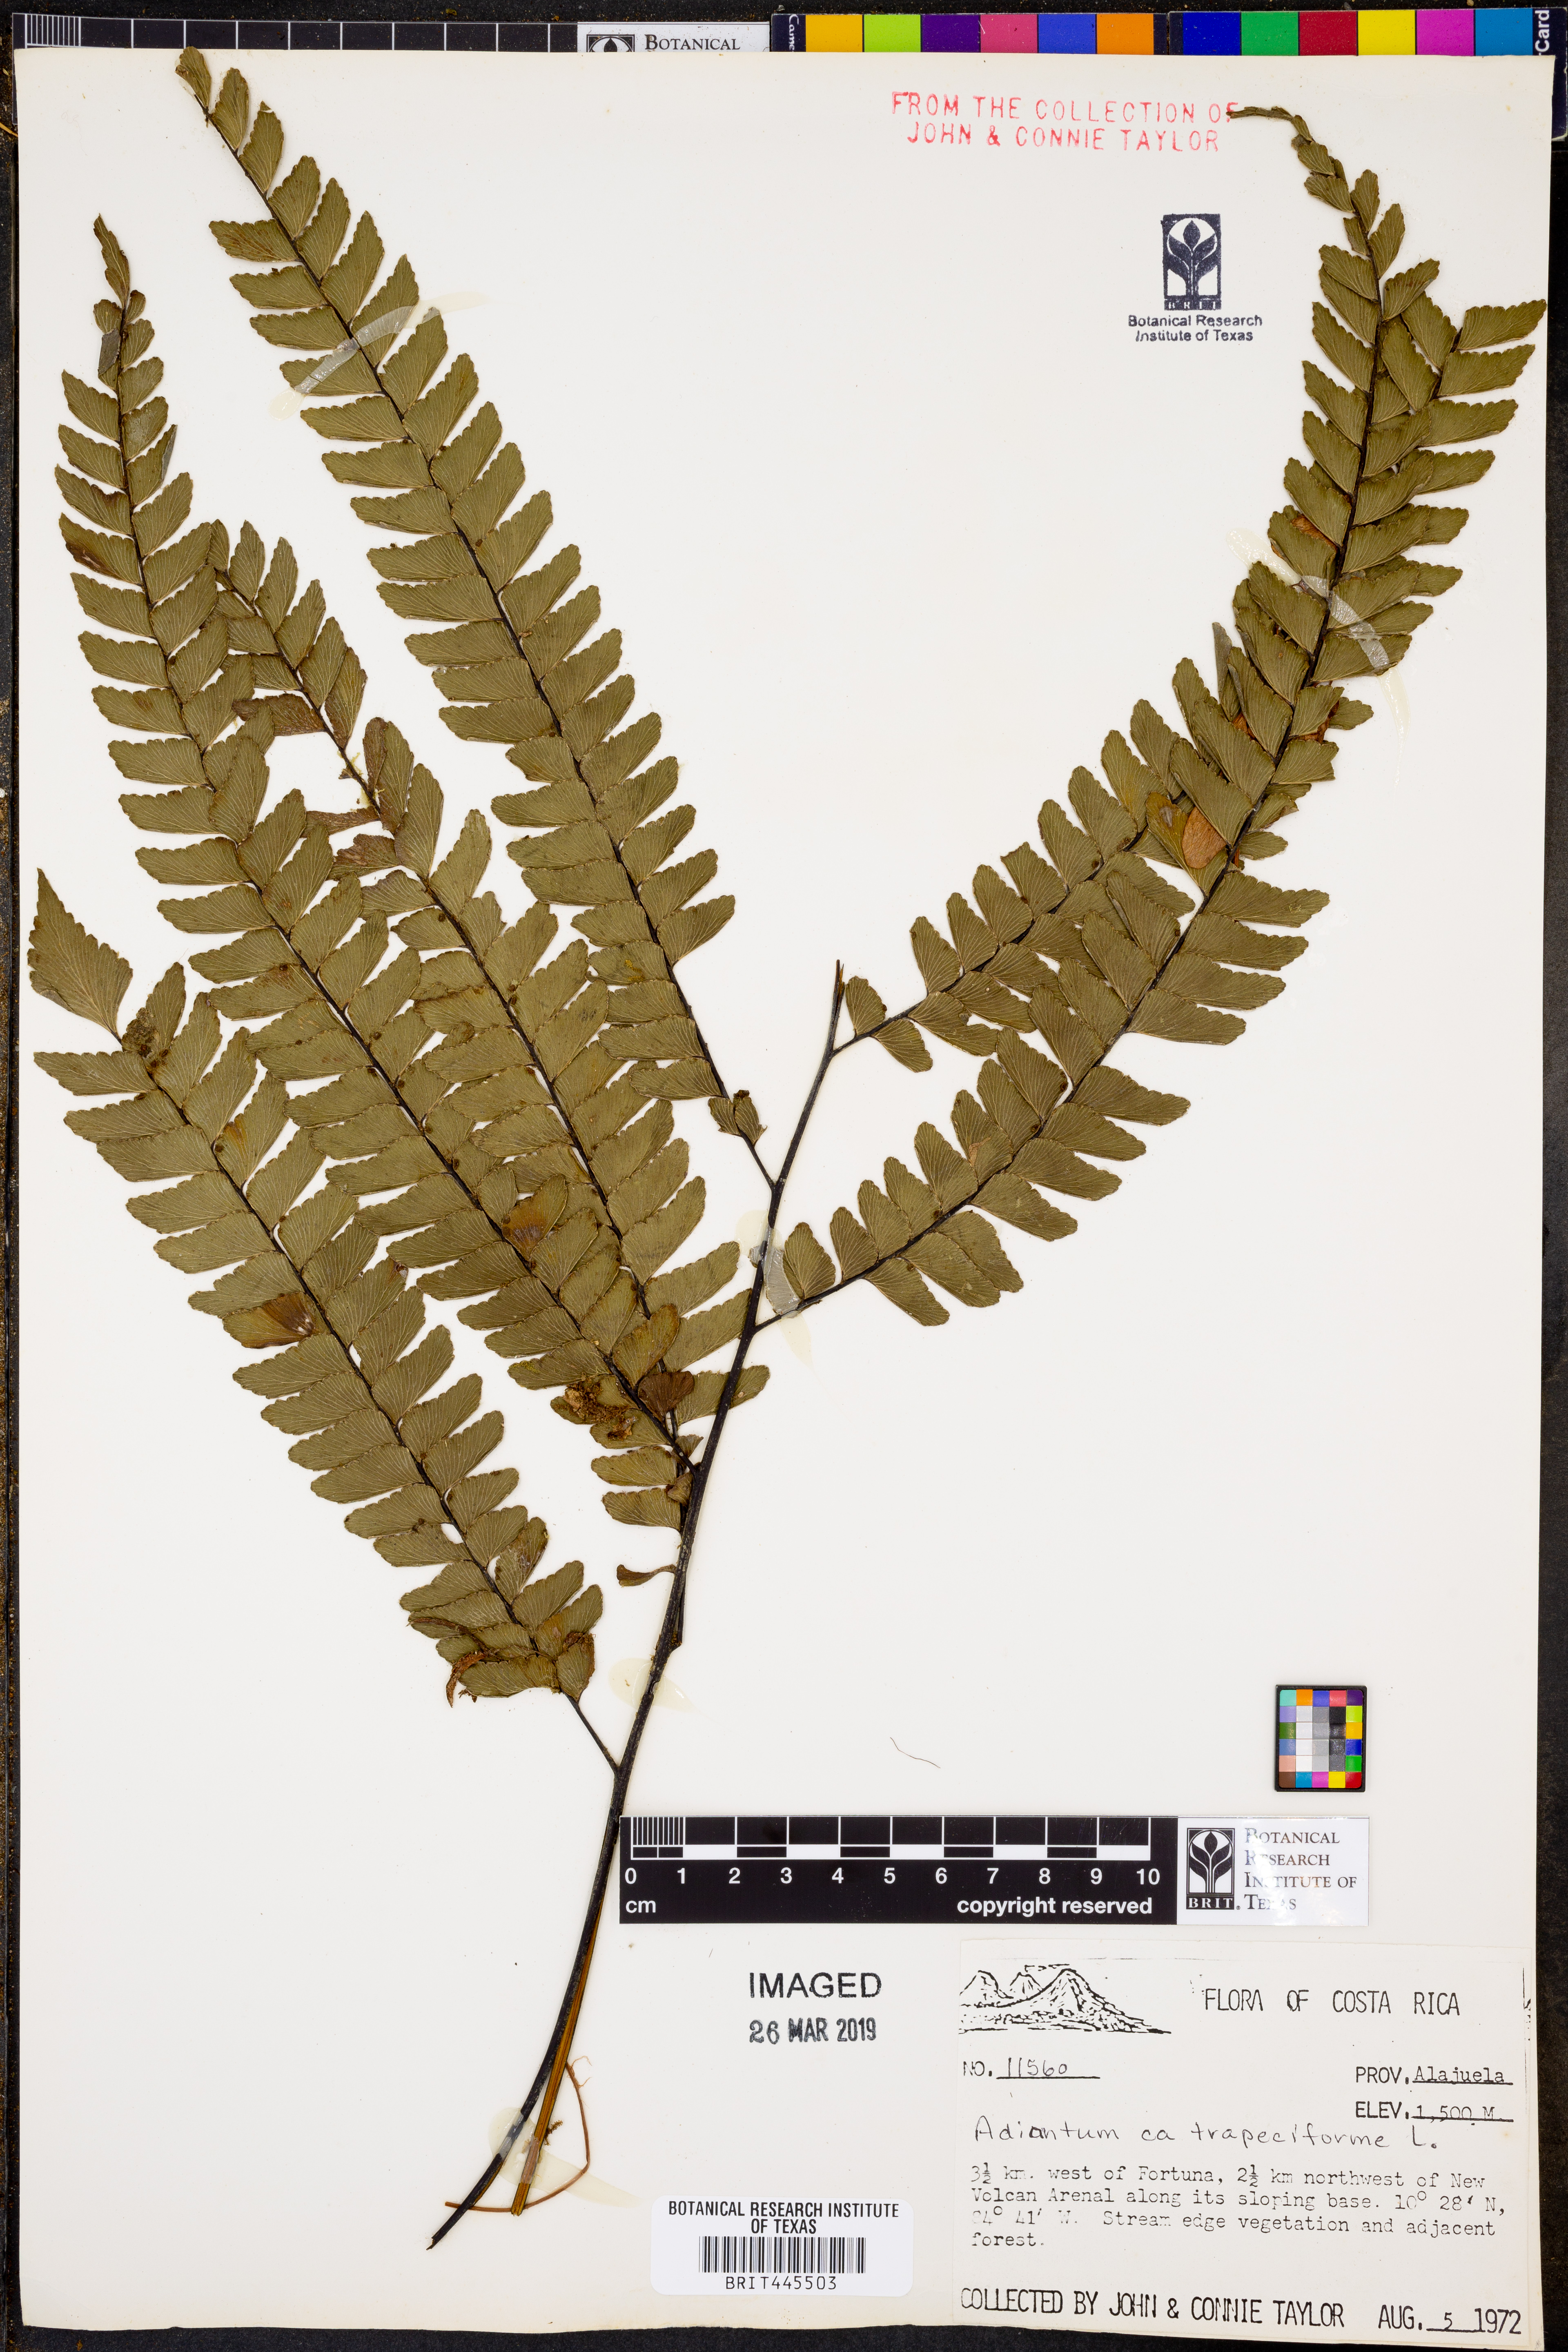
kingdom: Plantae
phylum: Tracheophyta
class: Polypodiopsida
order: Polypodiales
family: Pteridaceae
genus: Adiantum
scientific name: Adiantum trapeziforme
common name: Diamond maidenhair
